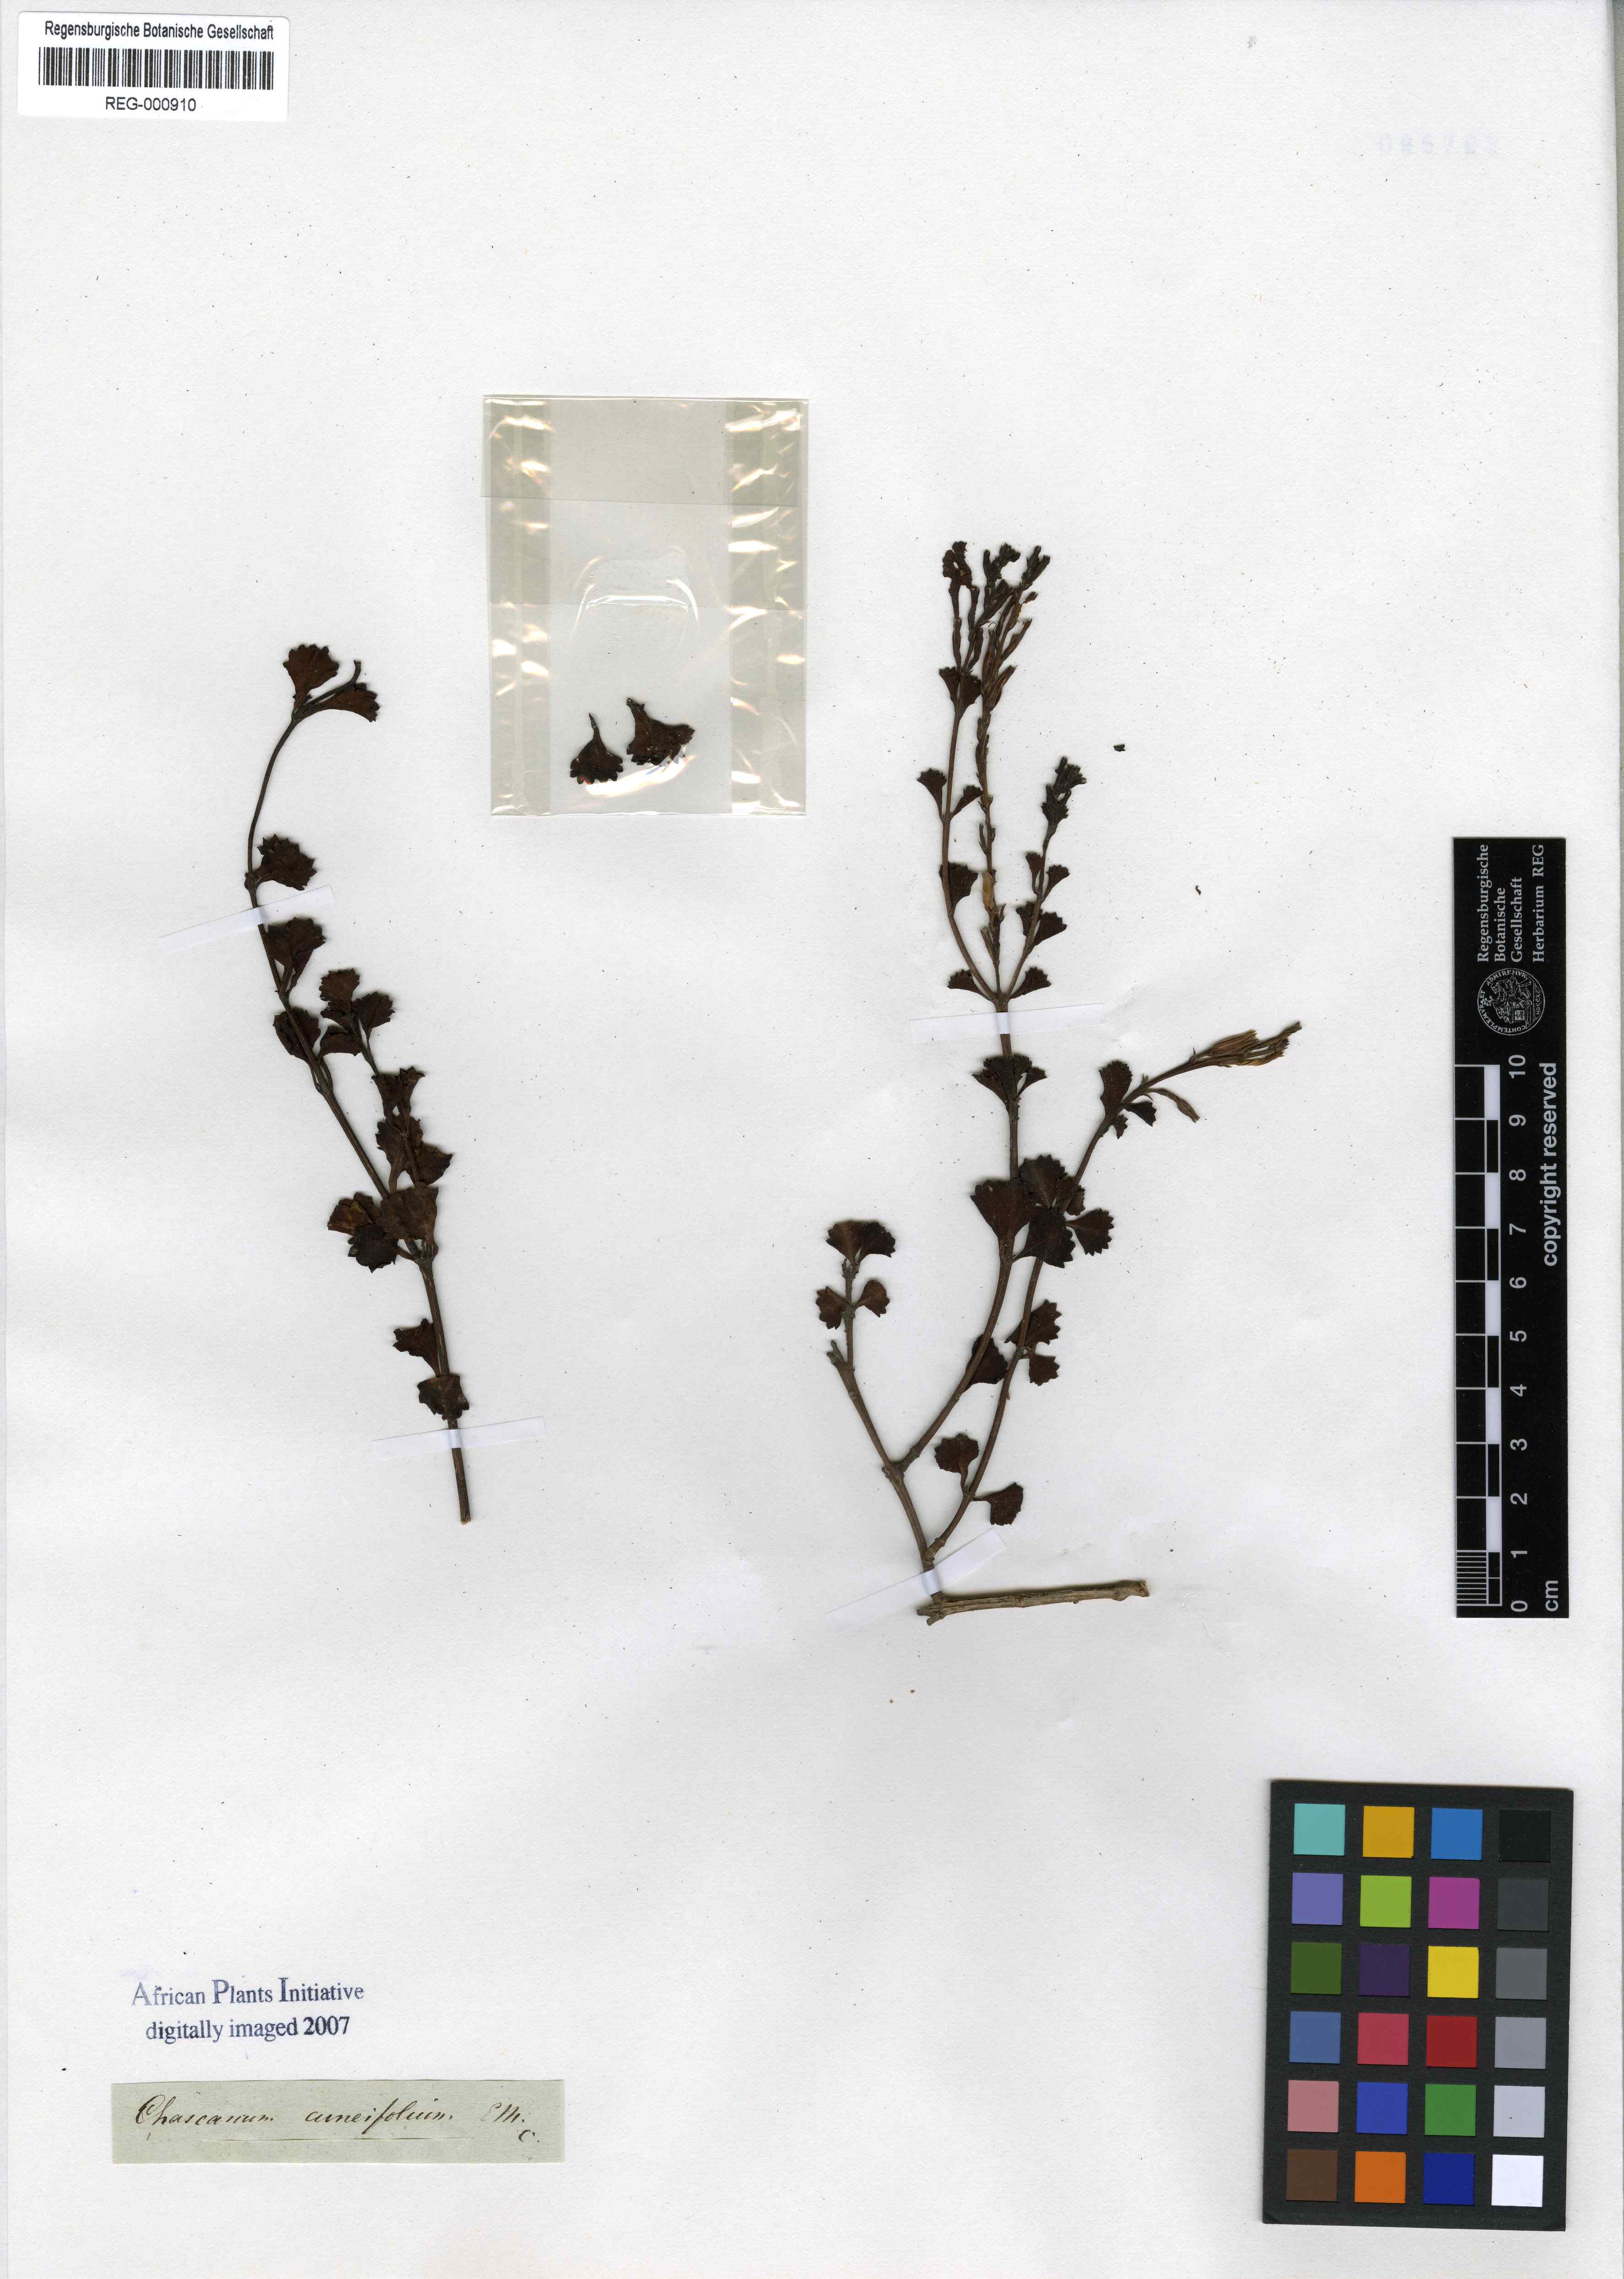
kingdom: Plantae
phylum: Tracheophyta
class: Magnoliopsida
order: Lamiales
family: Verbenaceae
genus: Chascanum
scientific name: Chascanum cuneifolium
